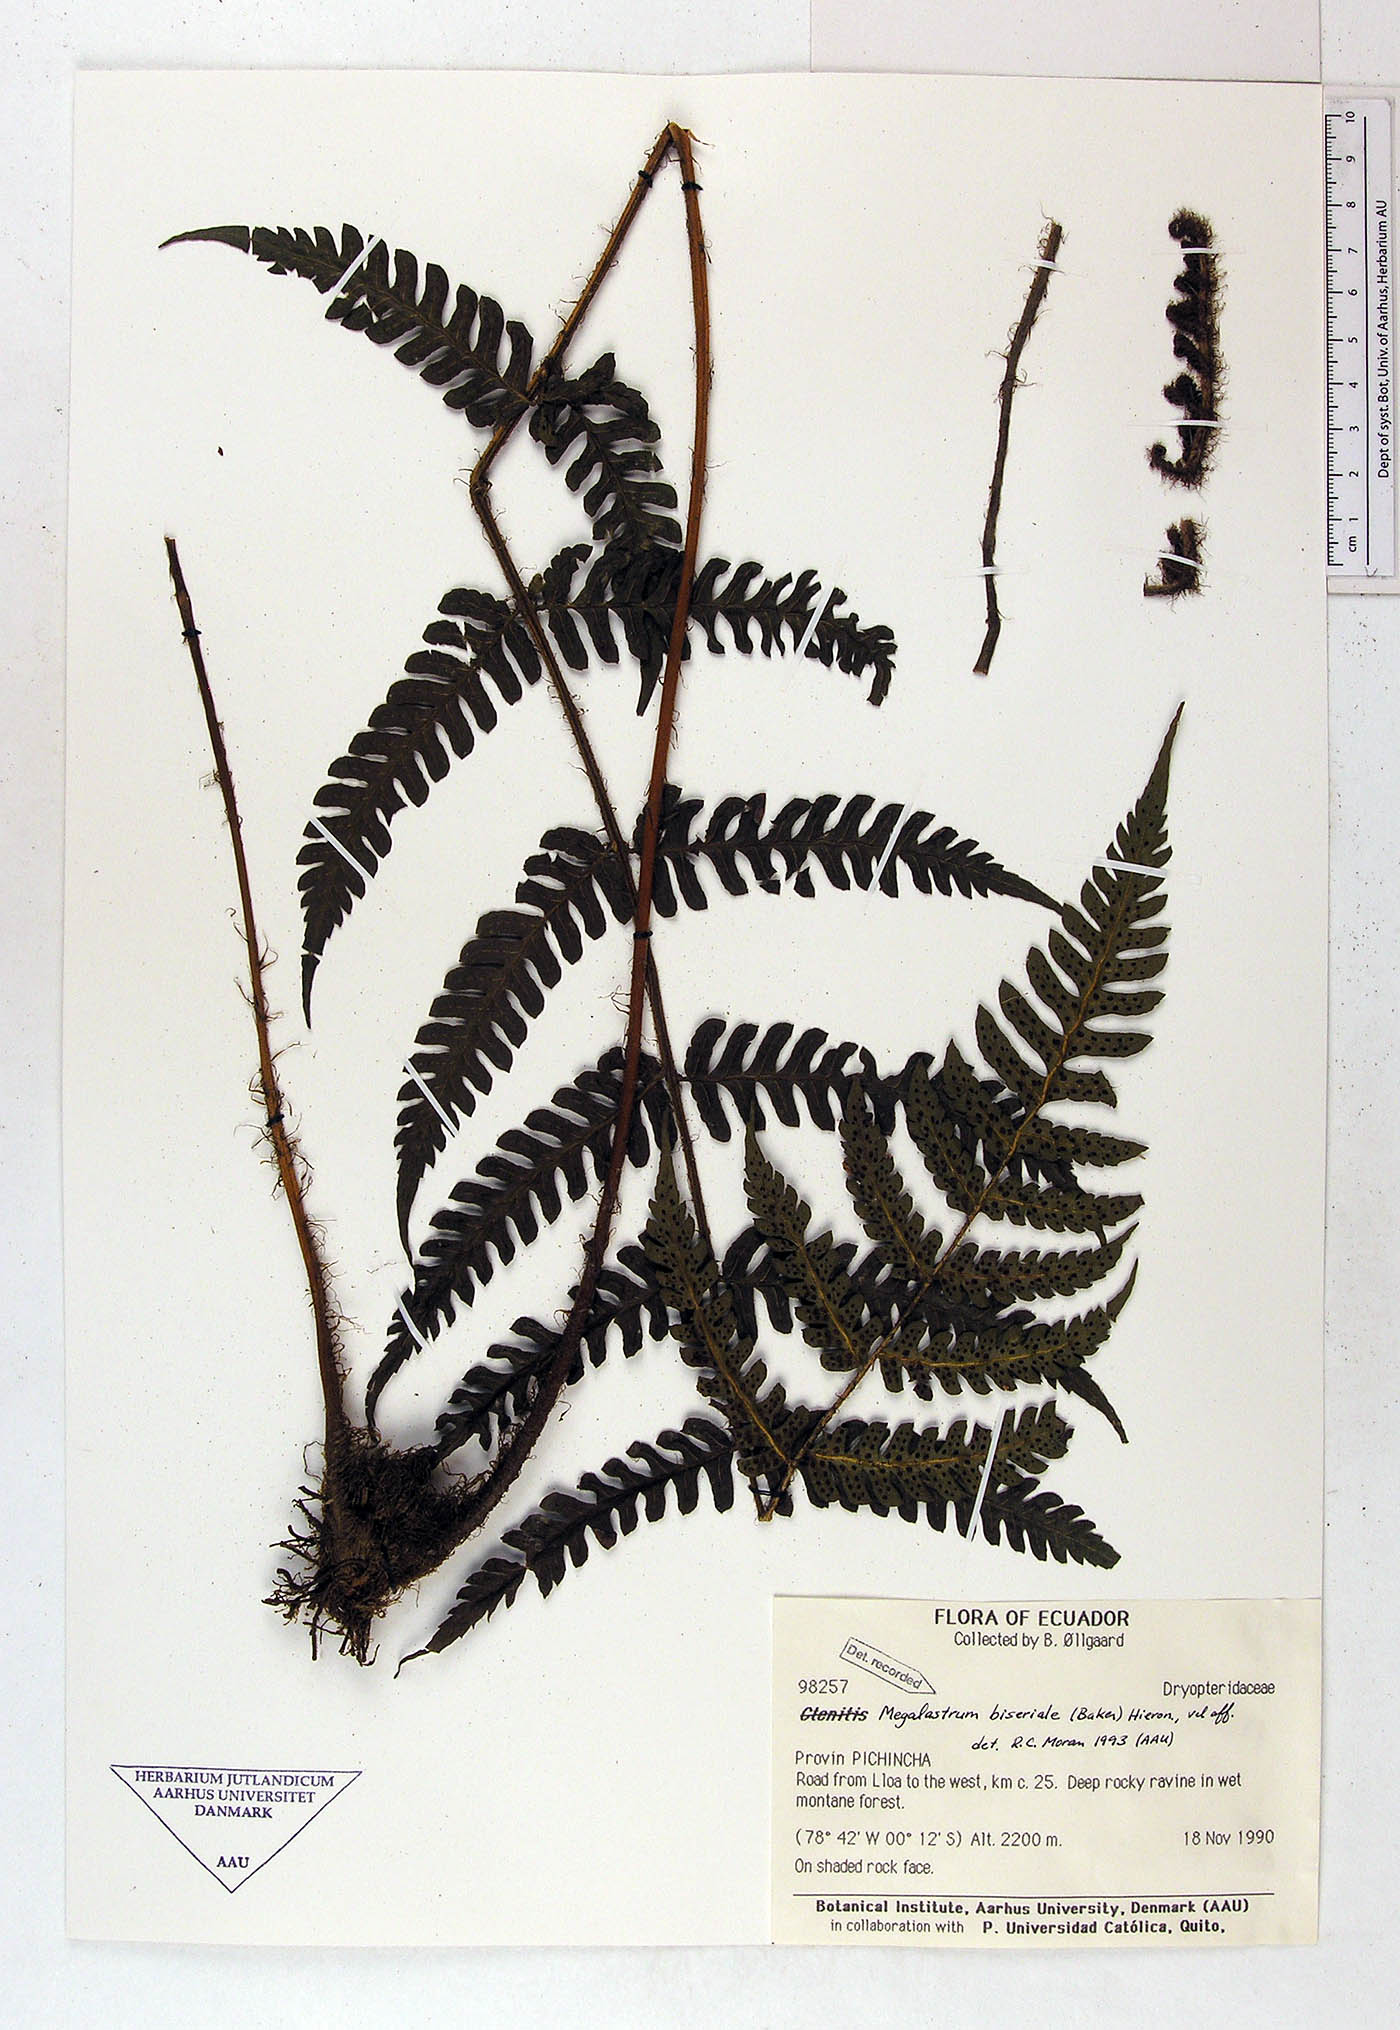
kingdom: Plantae
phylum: Tracheophyta
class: Polypodiopsida
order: Polypodiales
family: Dryopteridaceae
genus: Megalastrum
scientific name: Megalastrum biseriale
